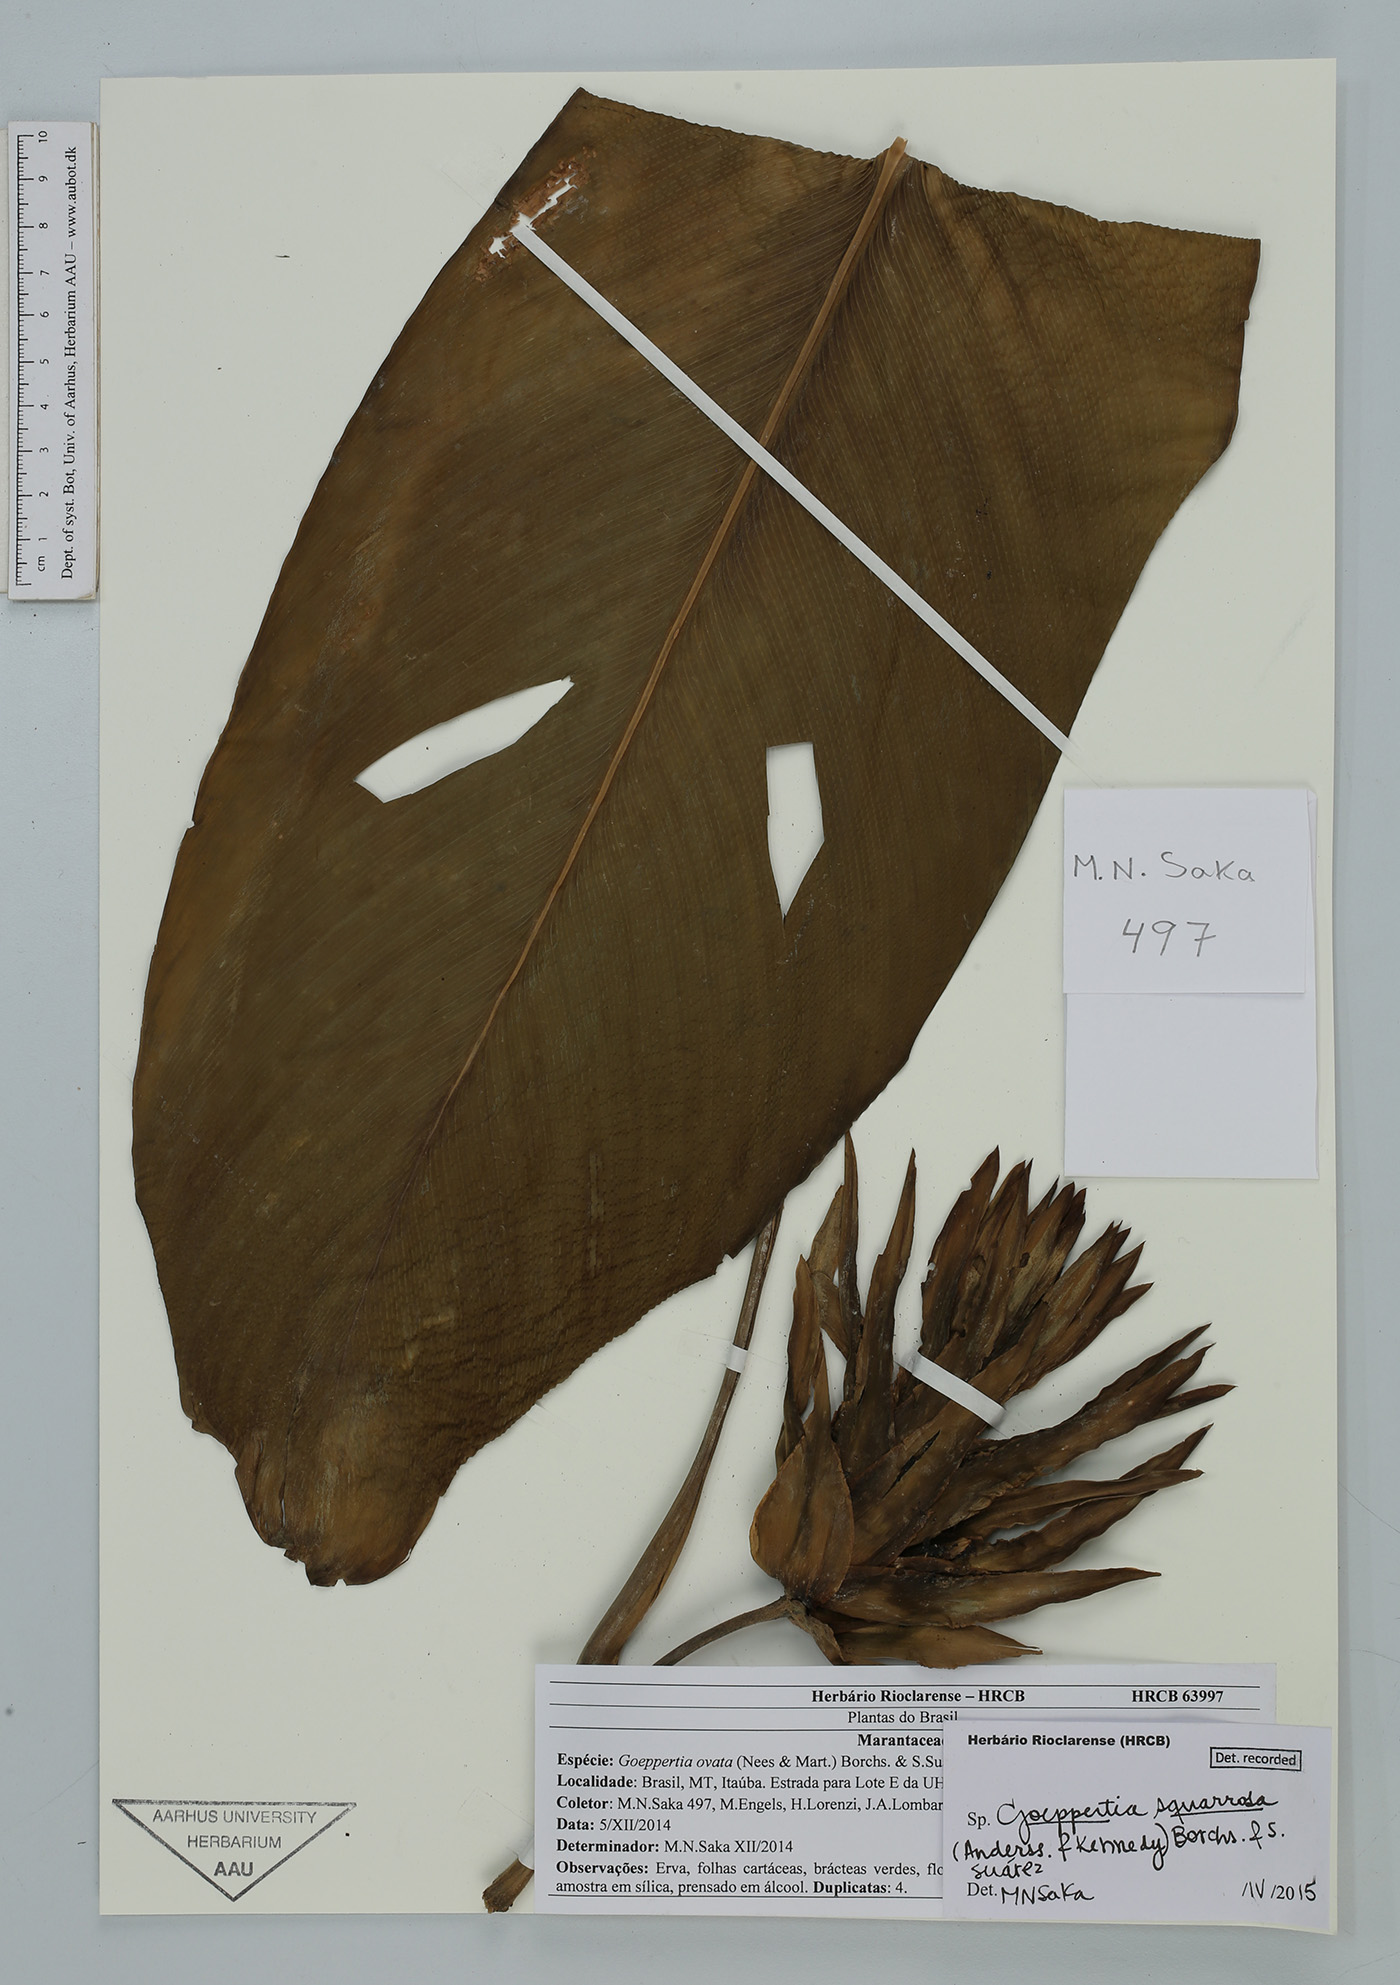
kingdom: Plantae
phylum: Tracheophyta
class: Liliopsida
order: Zingiberales
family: Marantaceae
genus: Goeppertia
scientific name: Goeppertia squarrosa
